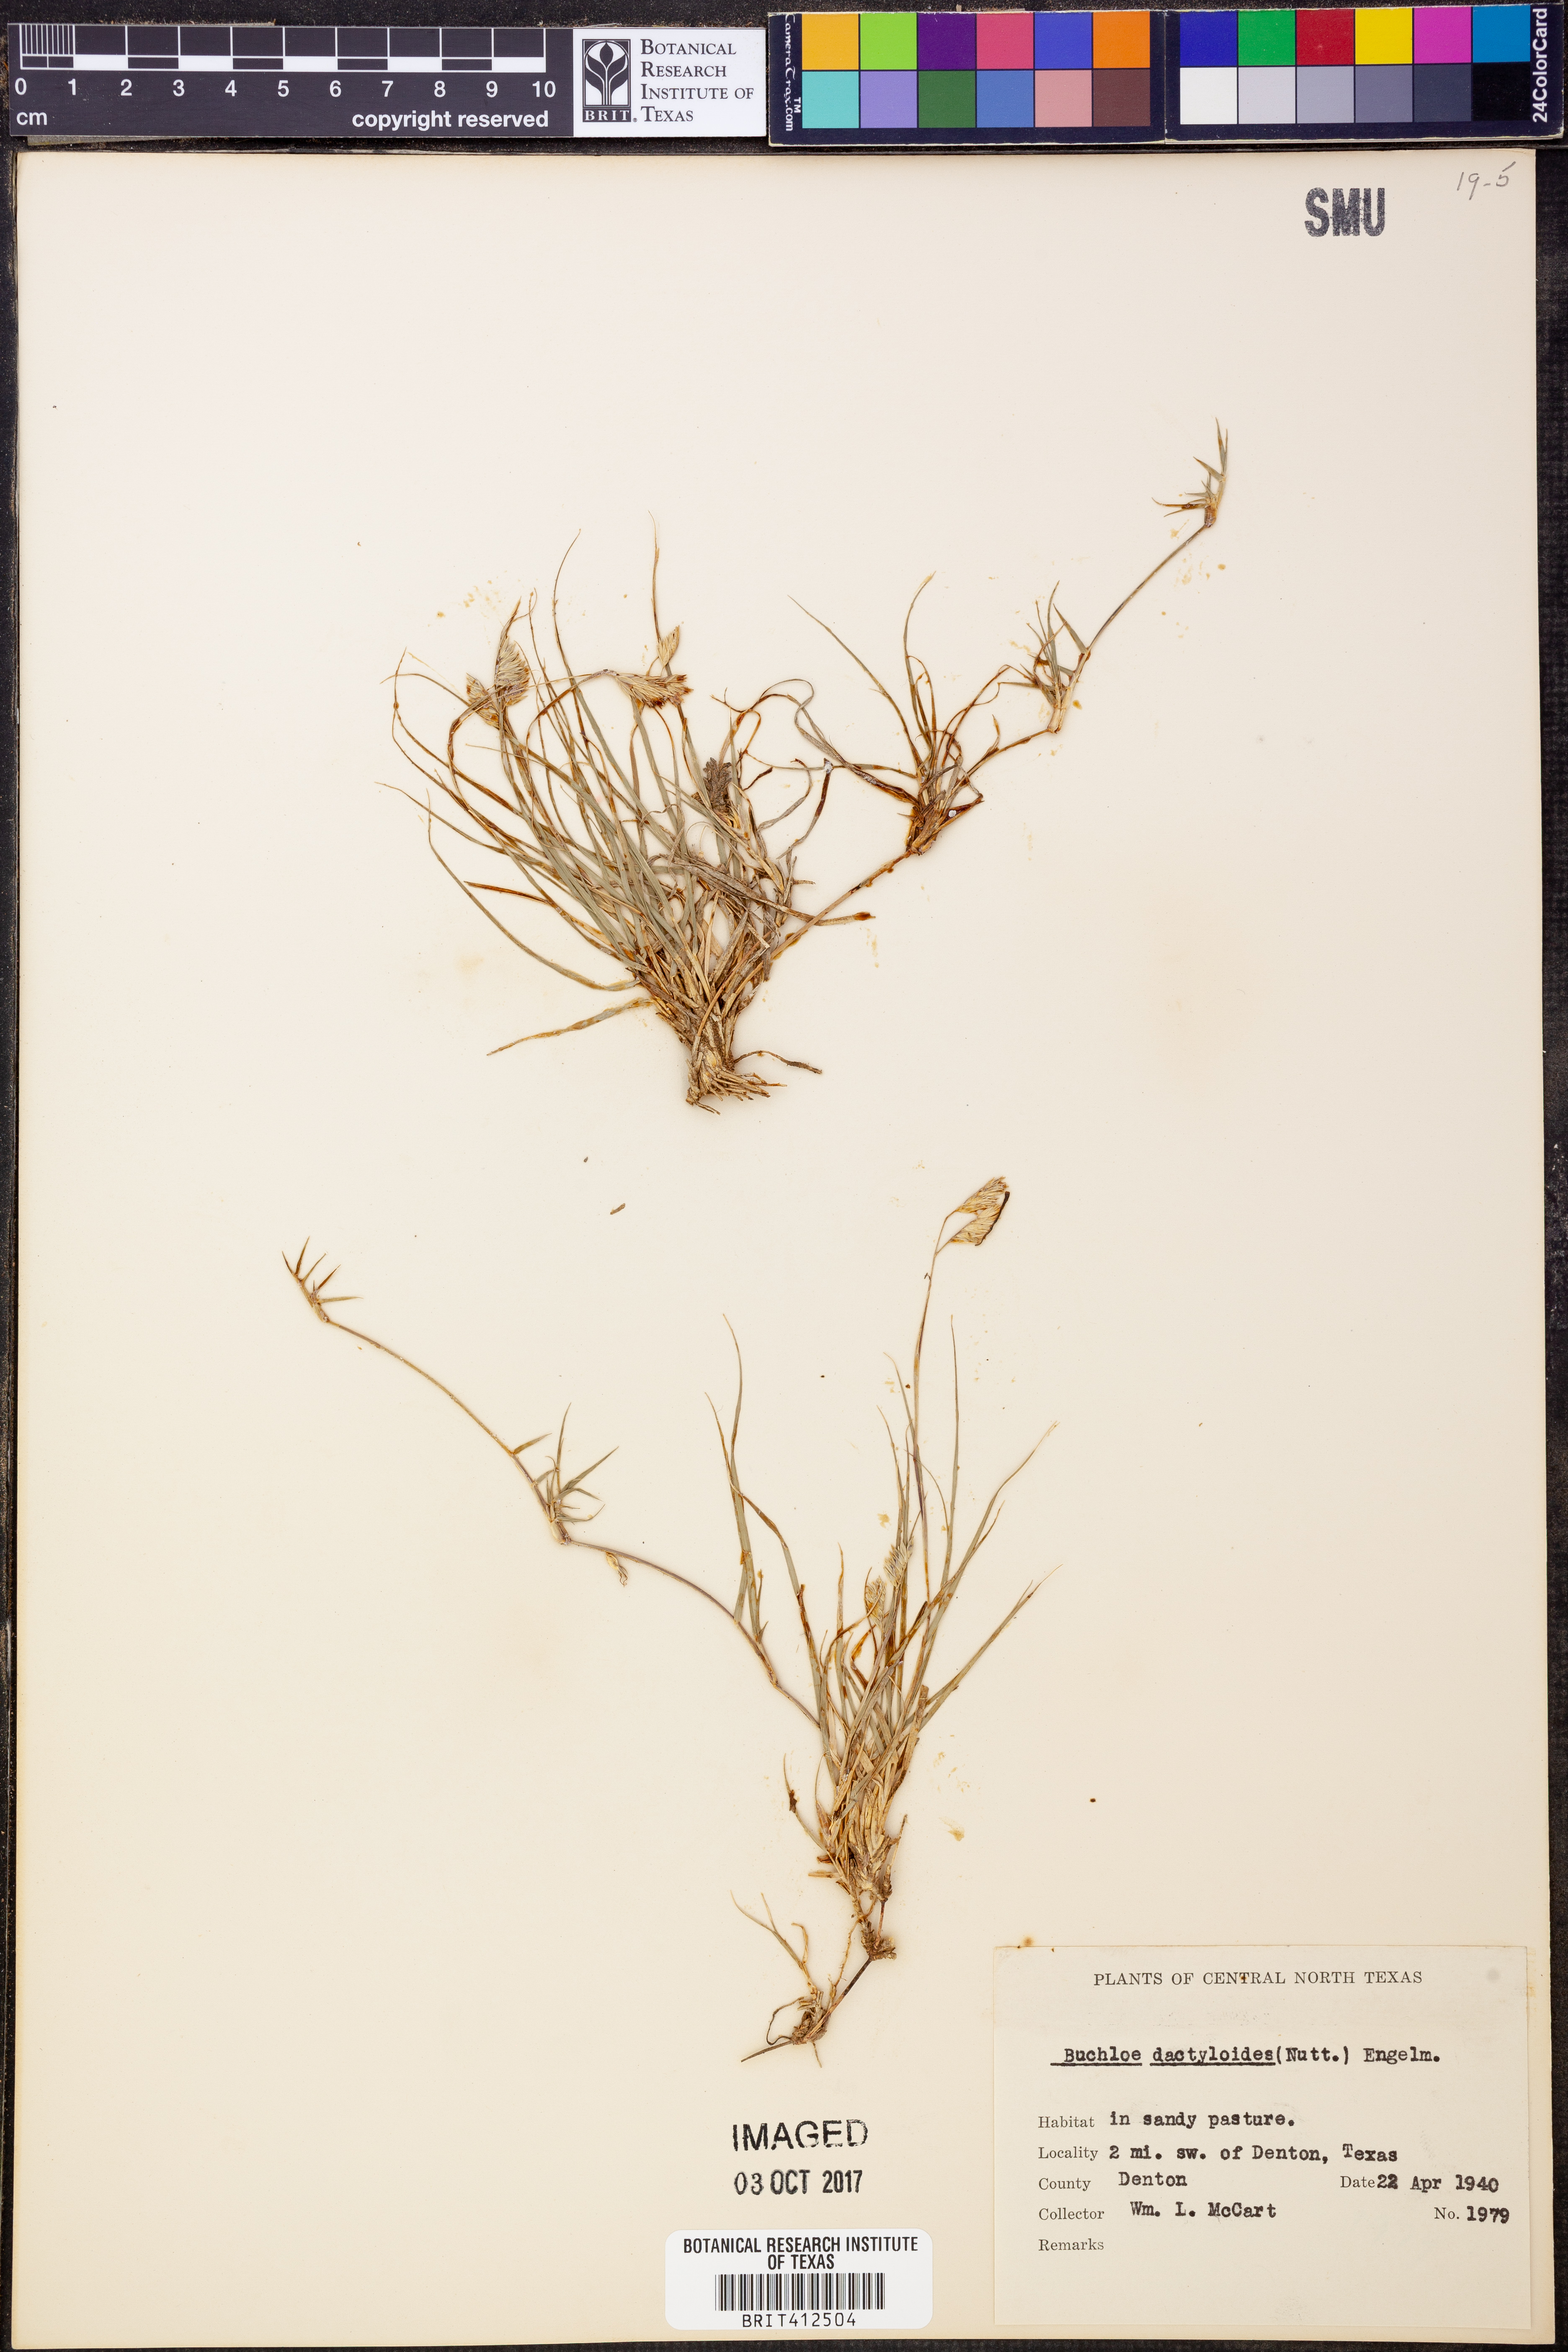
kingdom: Plantae
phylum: Tracheophyta
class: Liliopsida
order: Poales
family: Poaceae
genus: Bouteloua
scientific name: Bouteloua dactyloides
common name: Buffalo grass
